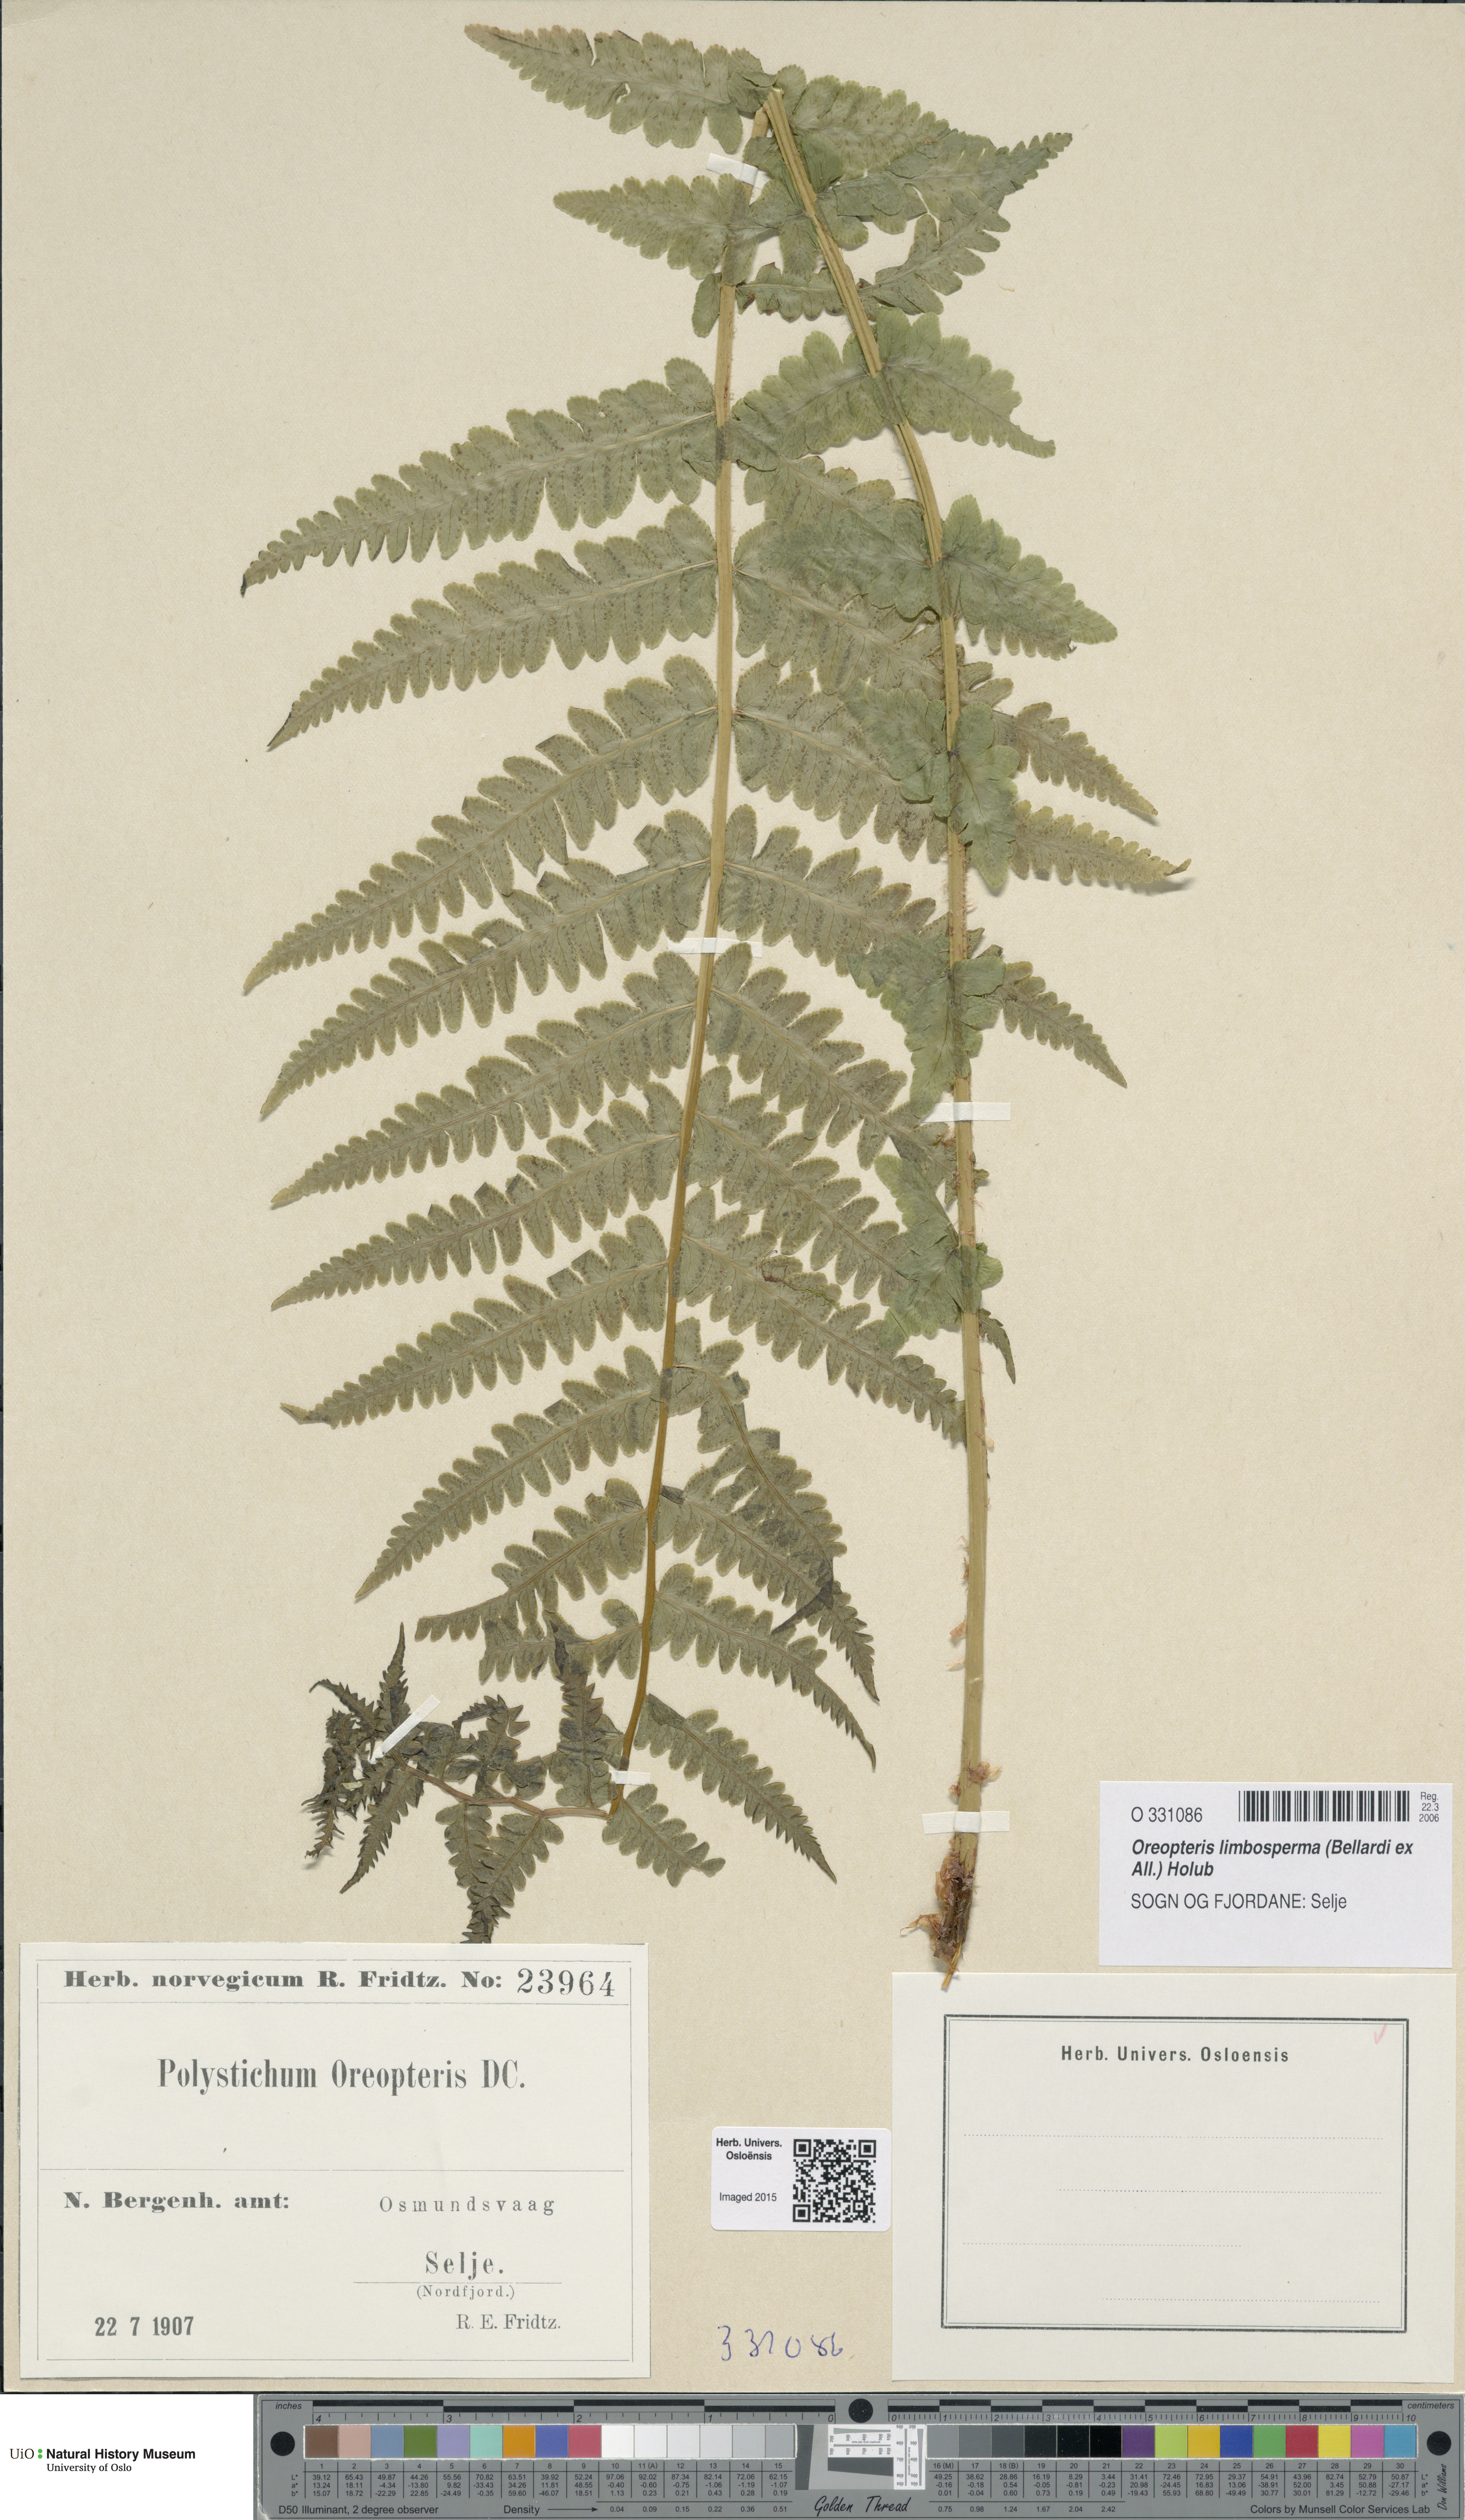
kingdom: Plantae
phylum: Tracheophyta
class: Polypodiopsida
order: Polypodiales
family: Thelypteridaceae
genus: Oreopteris
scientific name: Oreopteris limbosperma
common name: Lemon-scented fern
